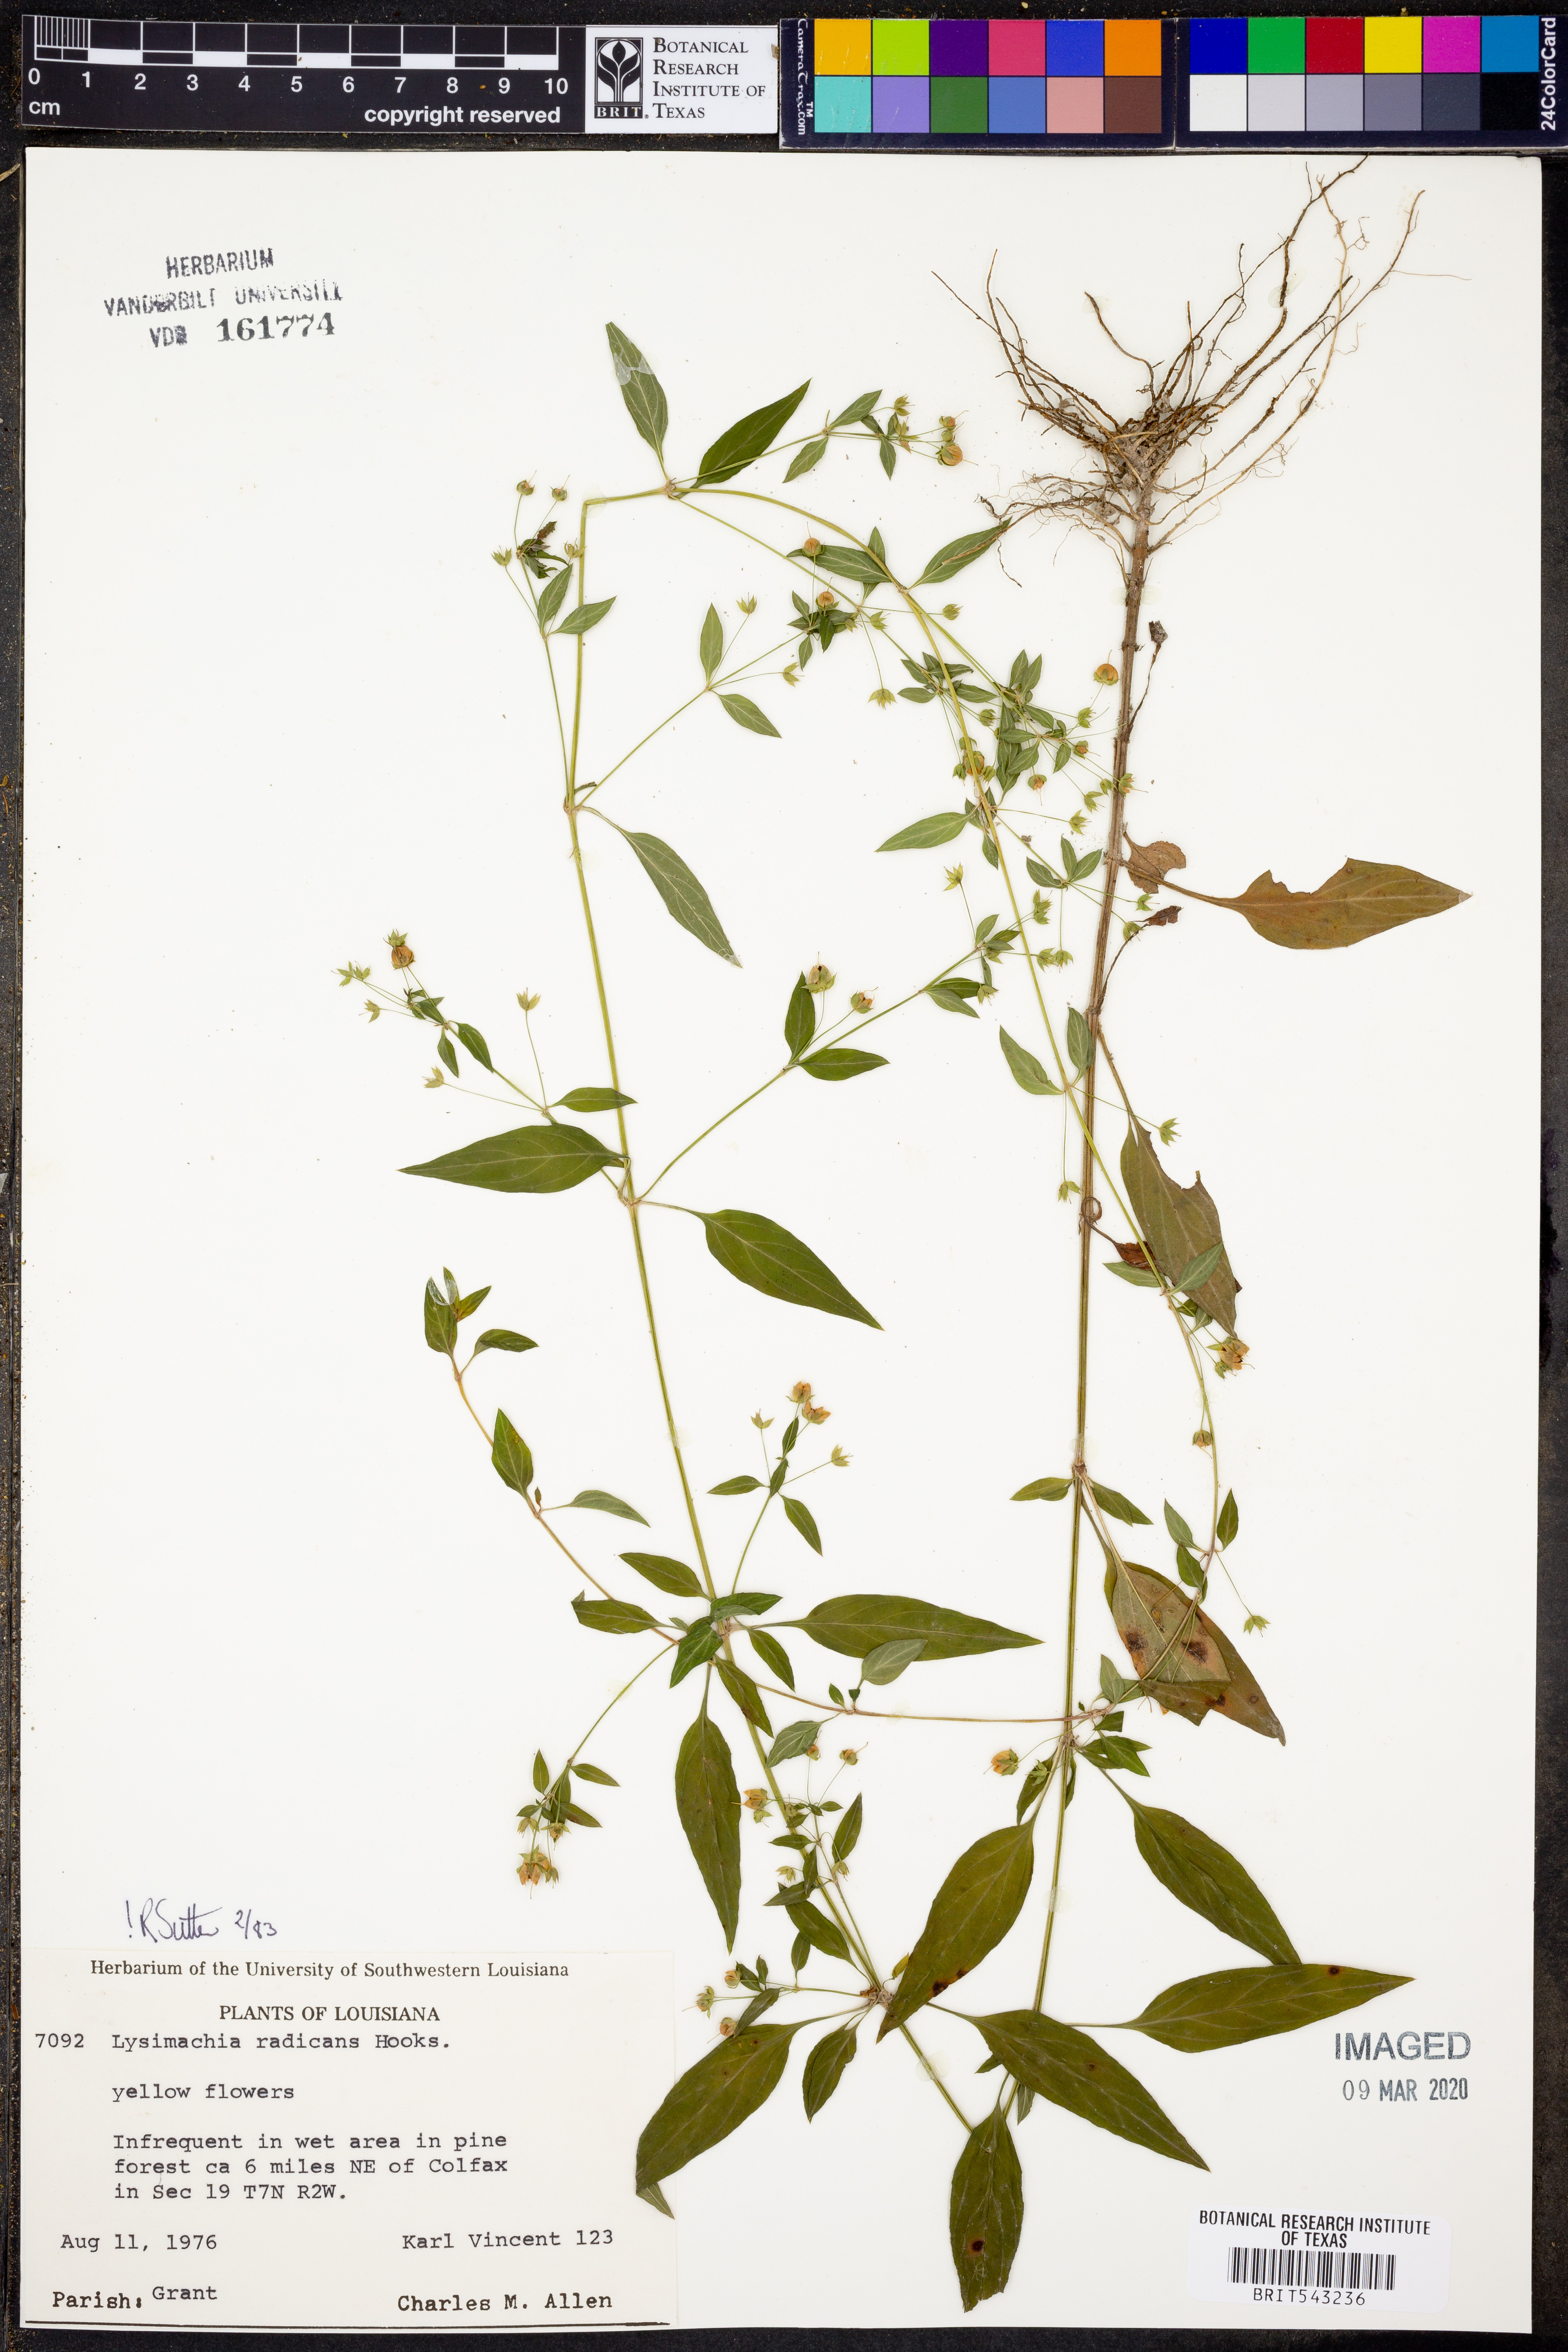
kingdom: Plantae
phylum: Tracheophyta
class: Magnoliopsida
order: Ericales
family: Primulaceae
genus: Lysimachia
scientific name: Lysimachia radicans
